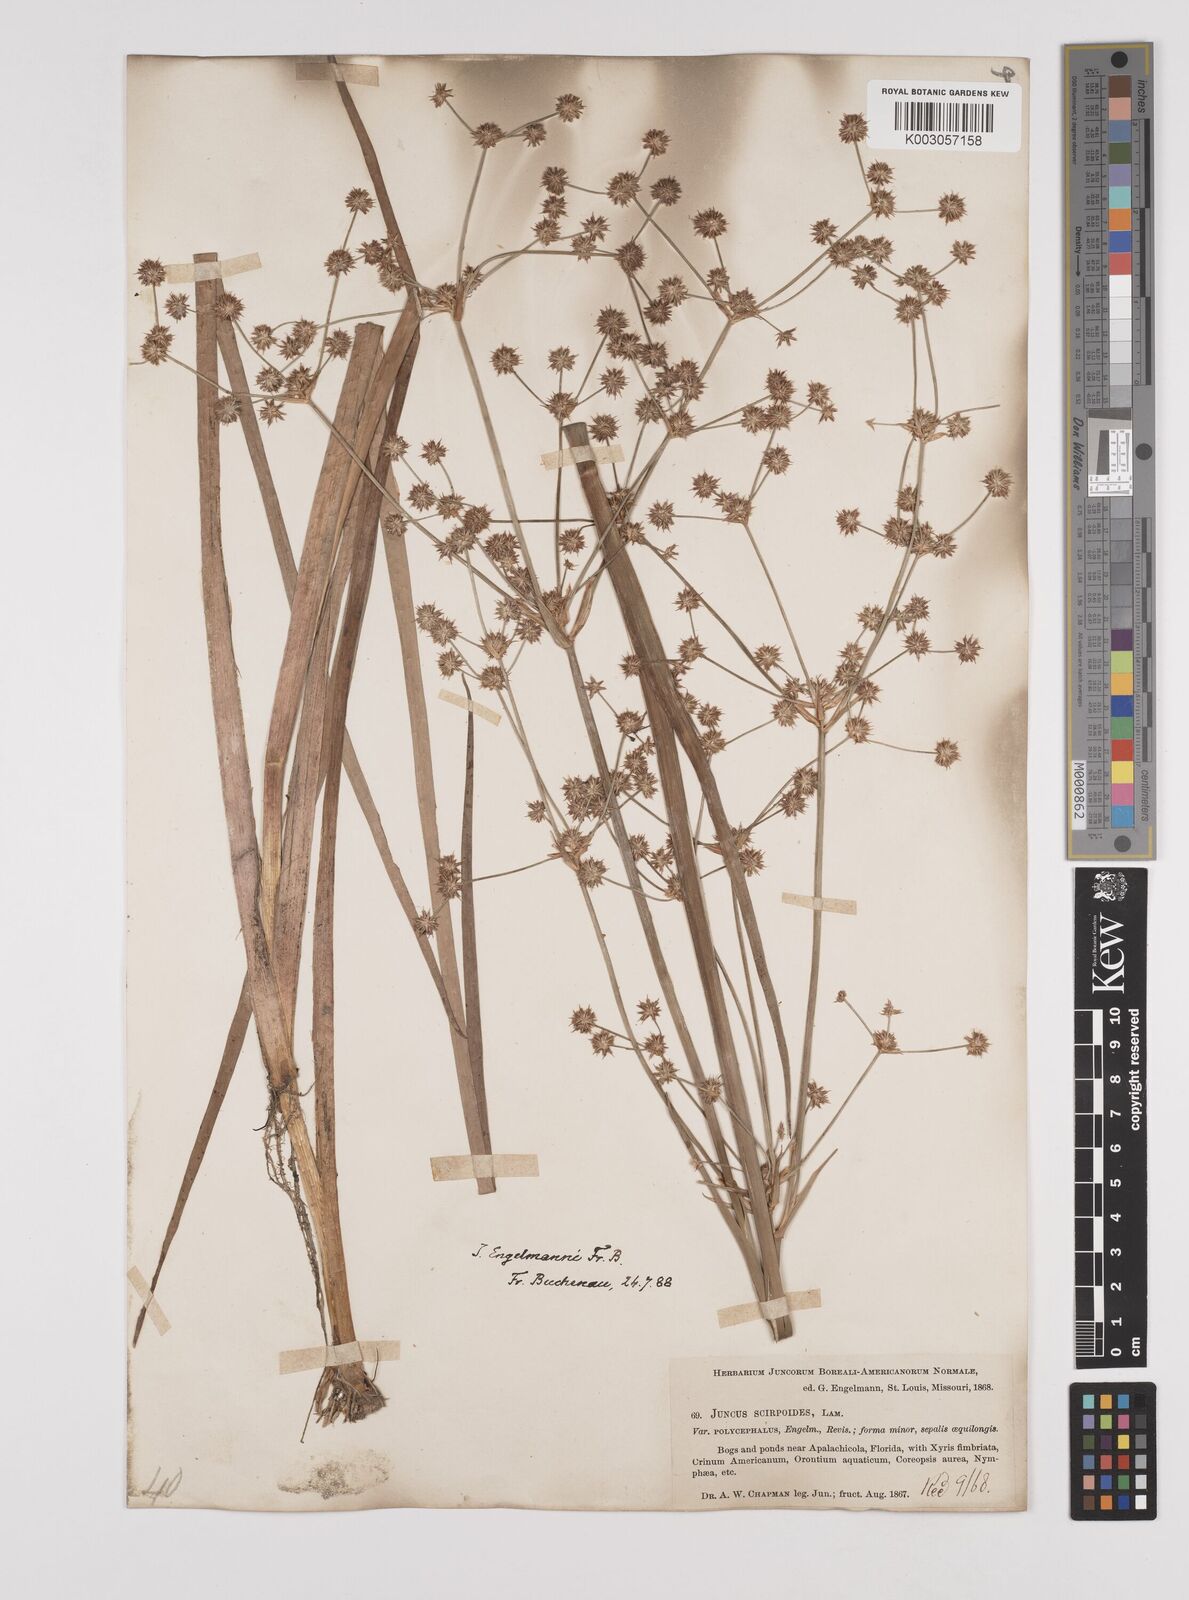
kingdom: Plantae
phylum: Tracheophyta
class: Liliopsida
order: Poales
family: Juncaceae
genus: Juncus
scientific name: Juncus articulatus
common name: Jointed rush
